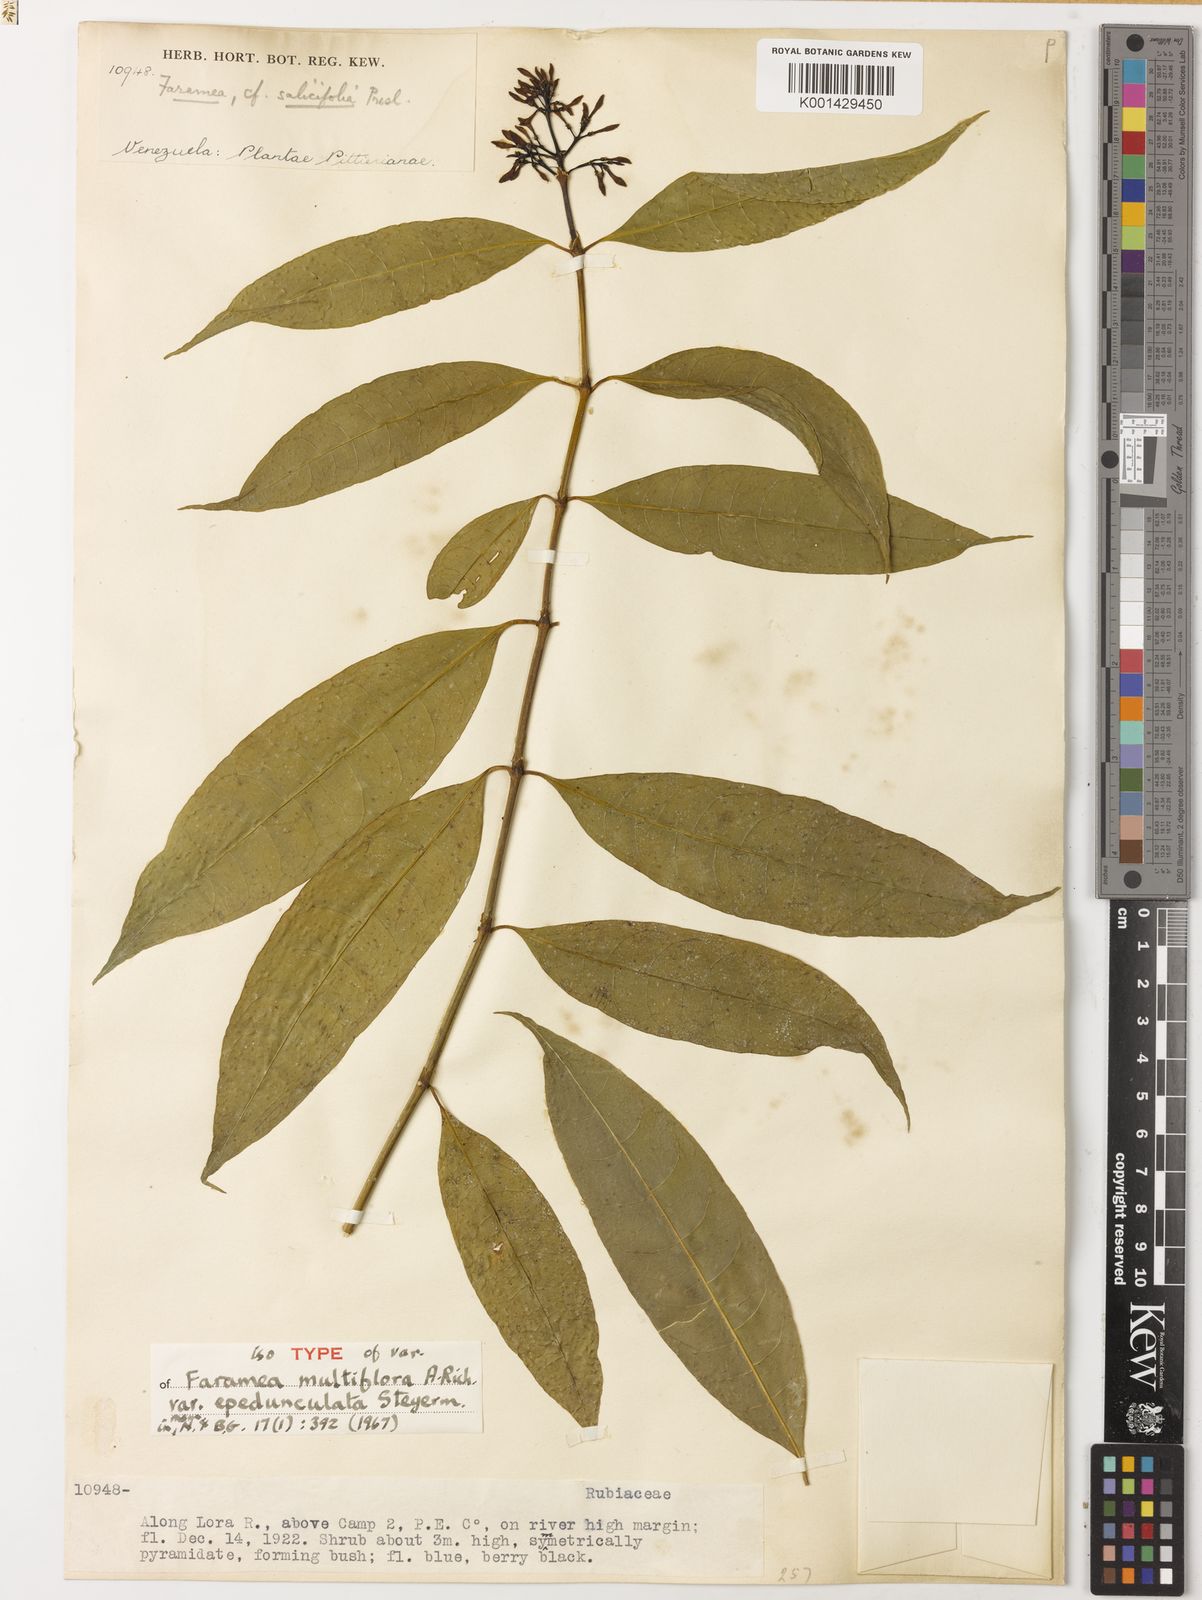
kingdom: Plantae
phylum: Tracheophyta
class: Magnoliopsida
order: Gentianales
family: Rubiaceae
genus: Faramea
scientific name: Faramea multiflora
